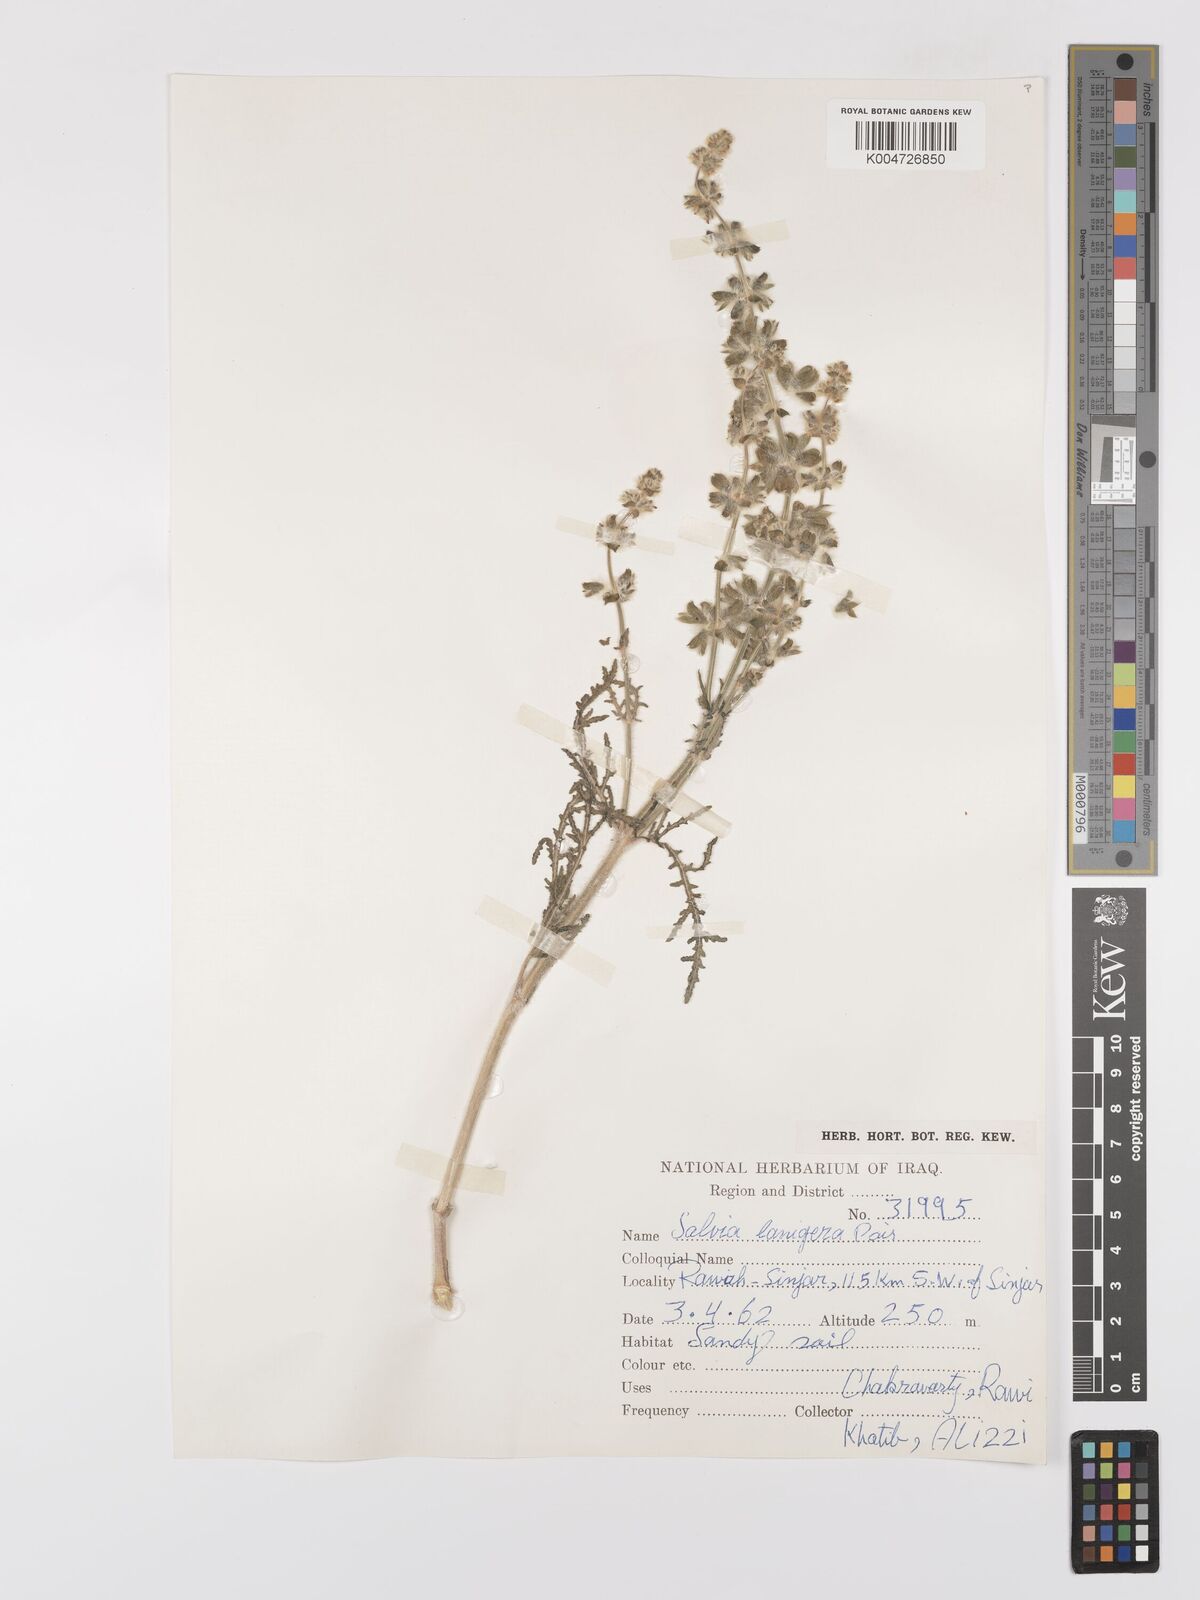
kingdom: Plantae
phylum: Tracheophyta
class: Magnoliopsida
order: Lamiales
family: Lamiaceae
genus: Salvia
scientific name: Salvia
